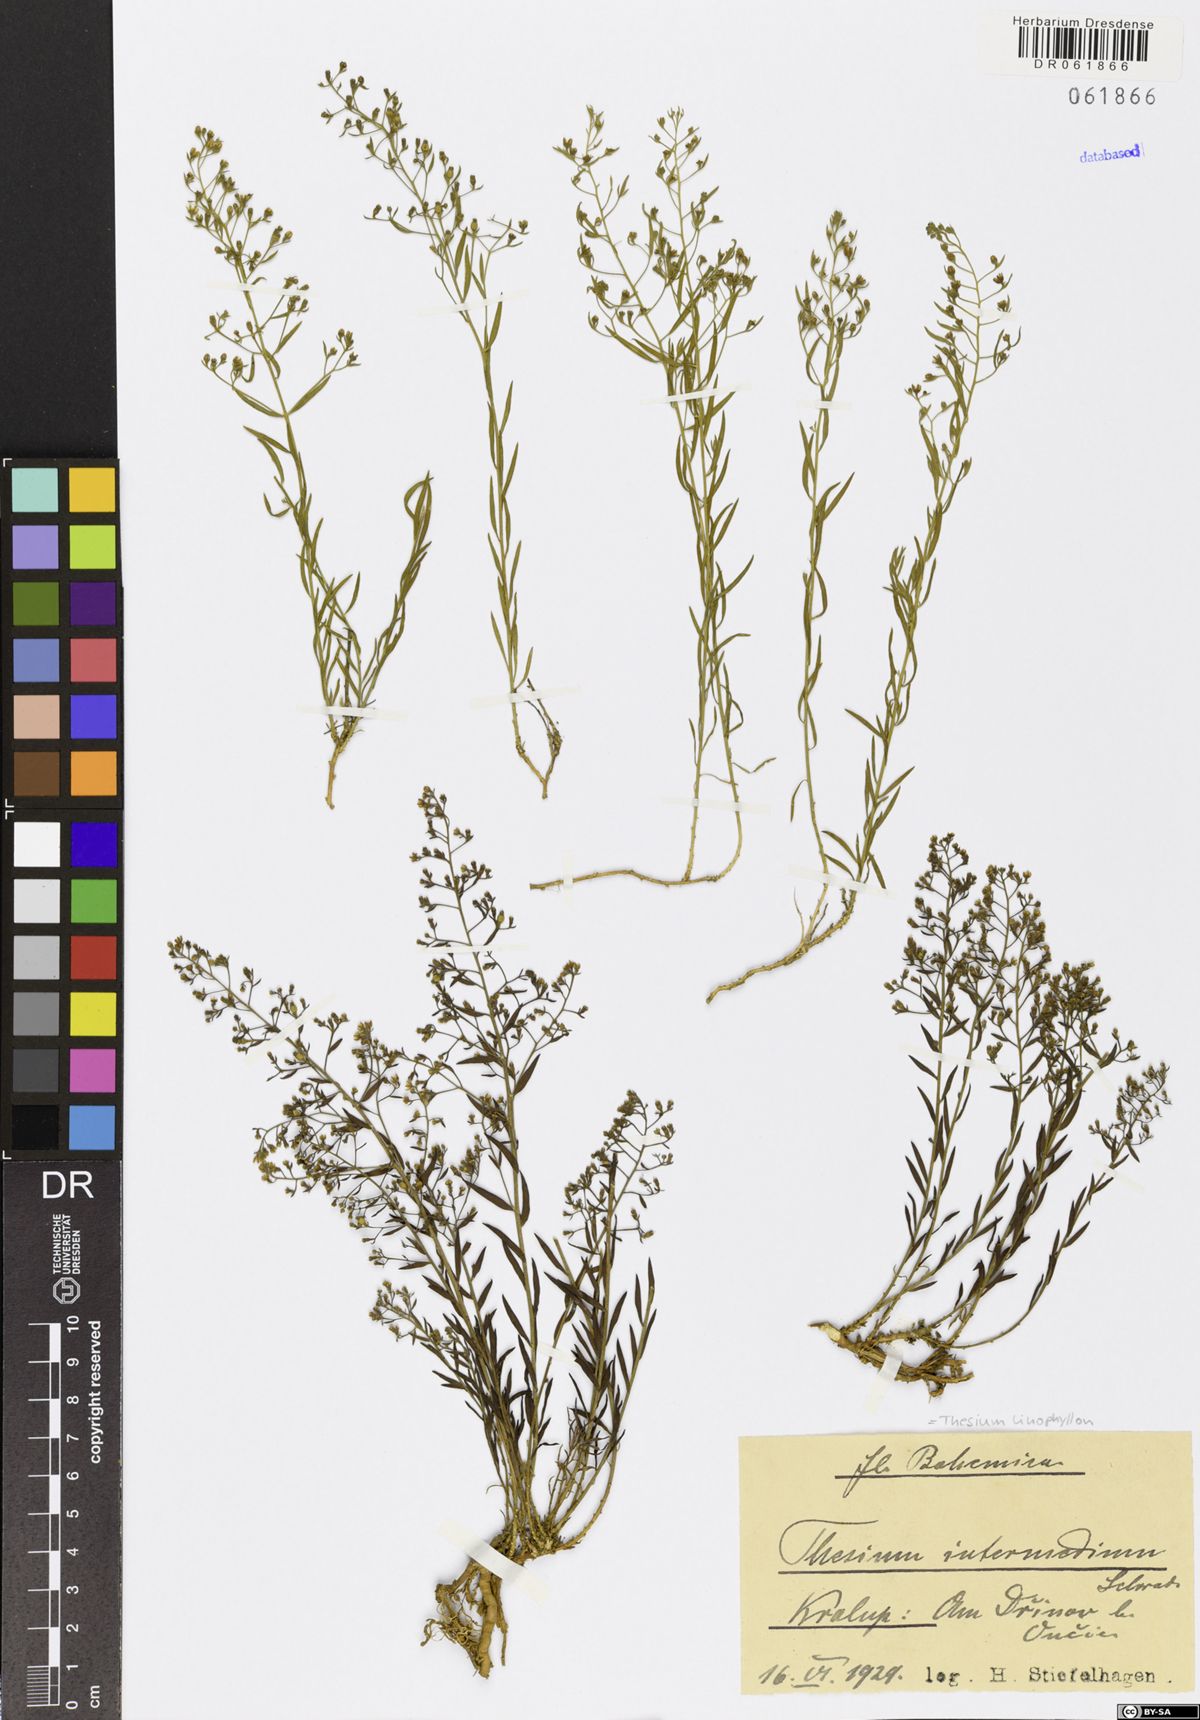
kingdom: Plantae
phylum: Tracheophyta
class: Magnoliopsida
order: Santalales
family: Thesiaceae
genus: Thesium
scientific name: Thesium linophyllon
